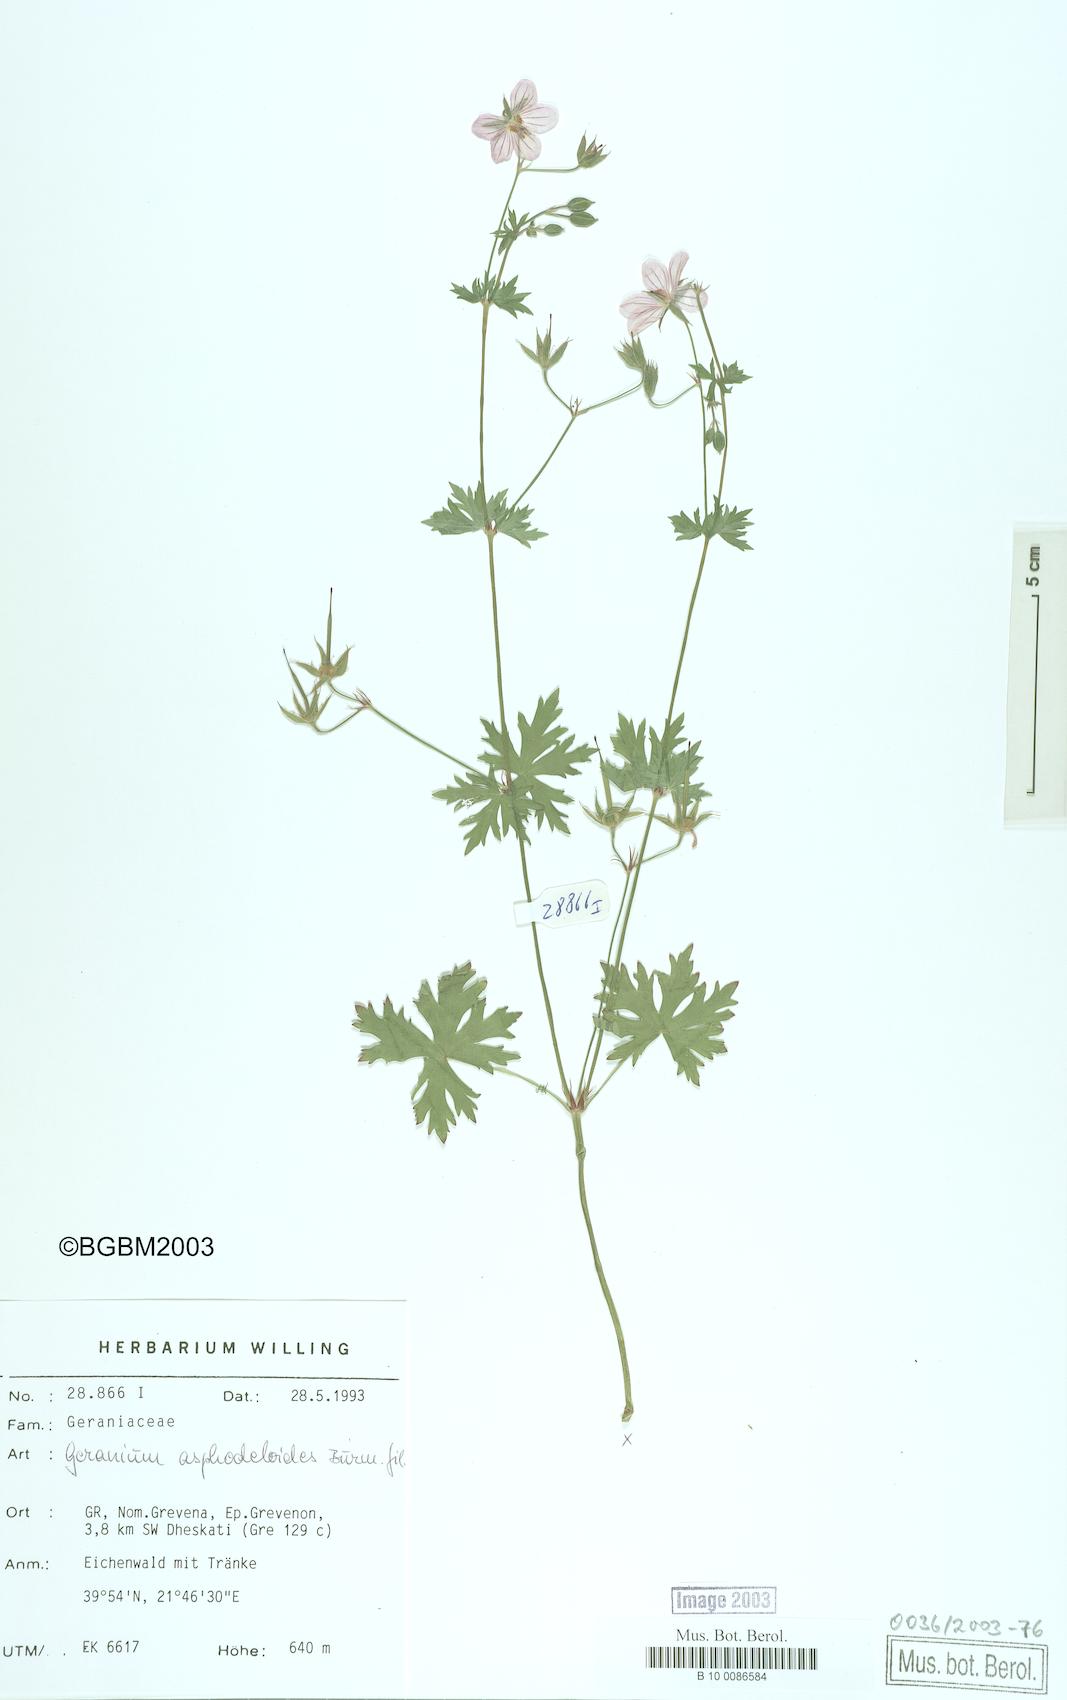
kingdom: Plantae
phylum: Tracheophyta
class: Magnoliopsida
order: Geraniales
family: Geraniaceae
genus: Geranium
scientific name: Geranium asphodeloides
